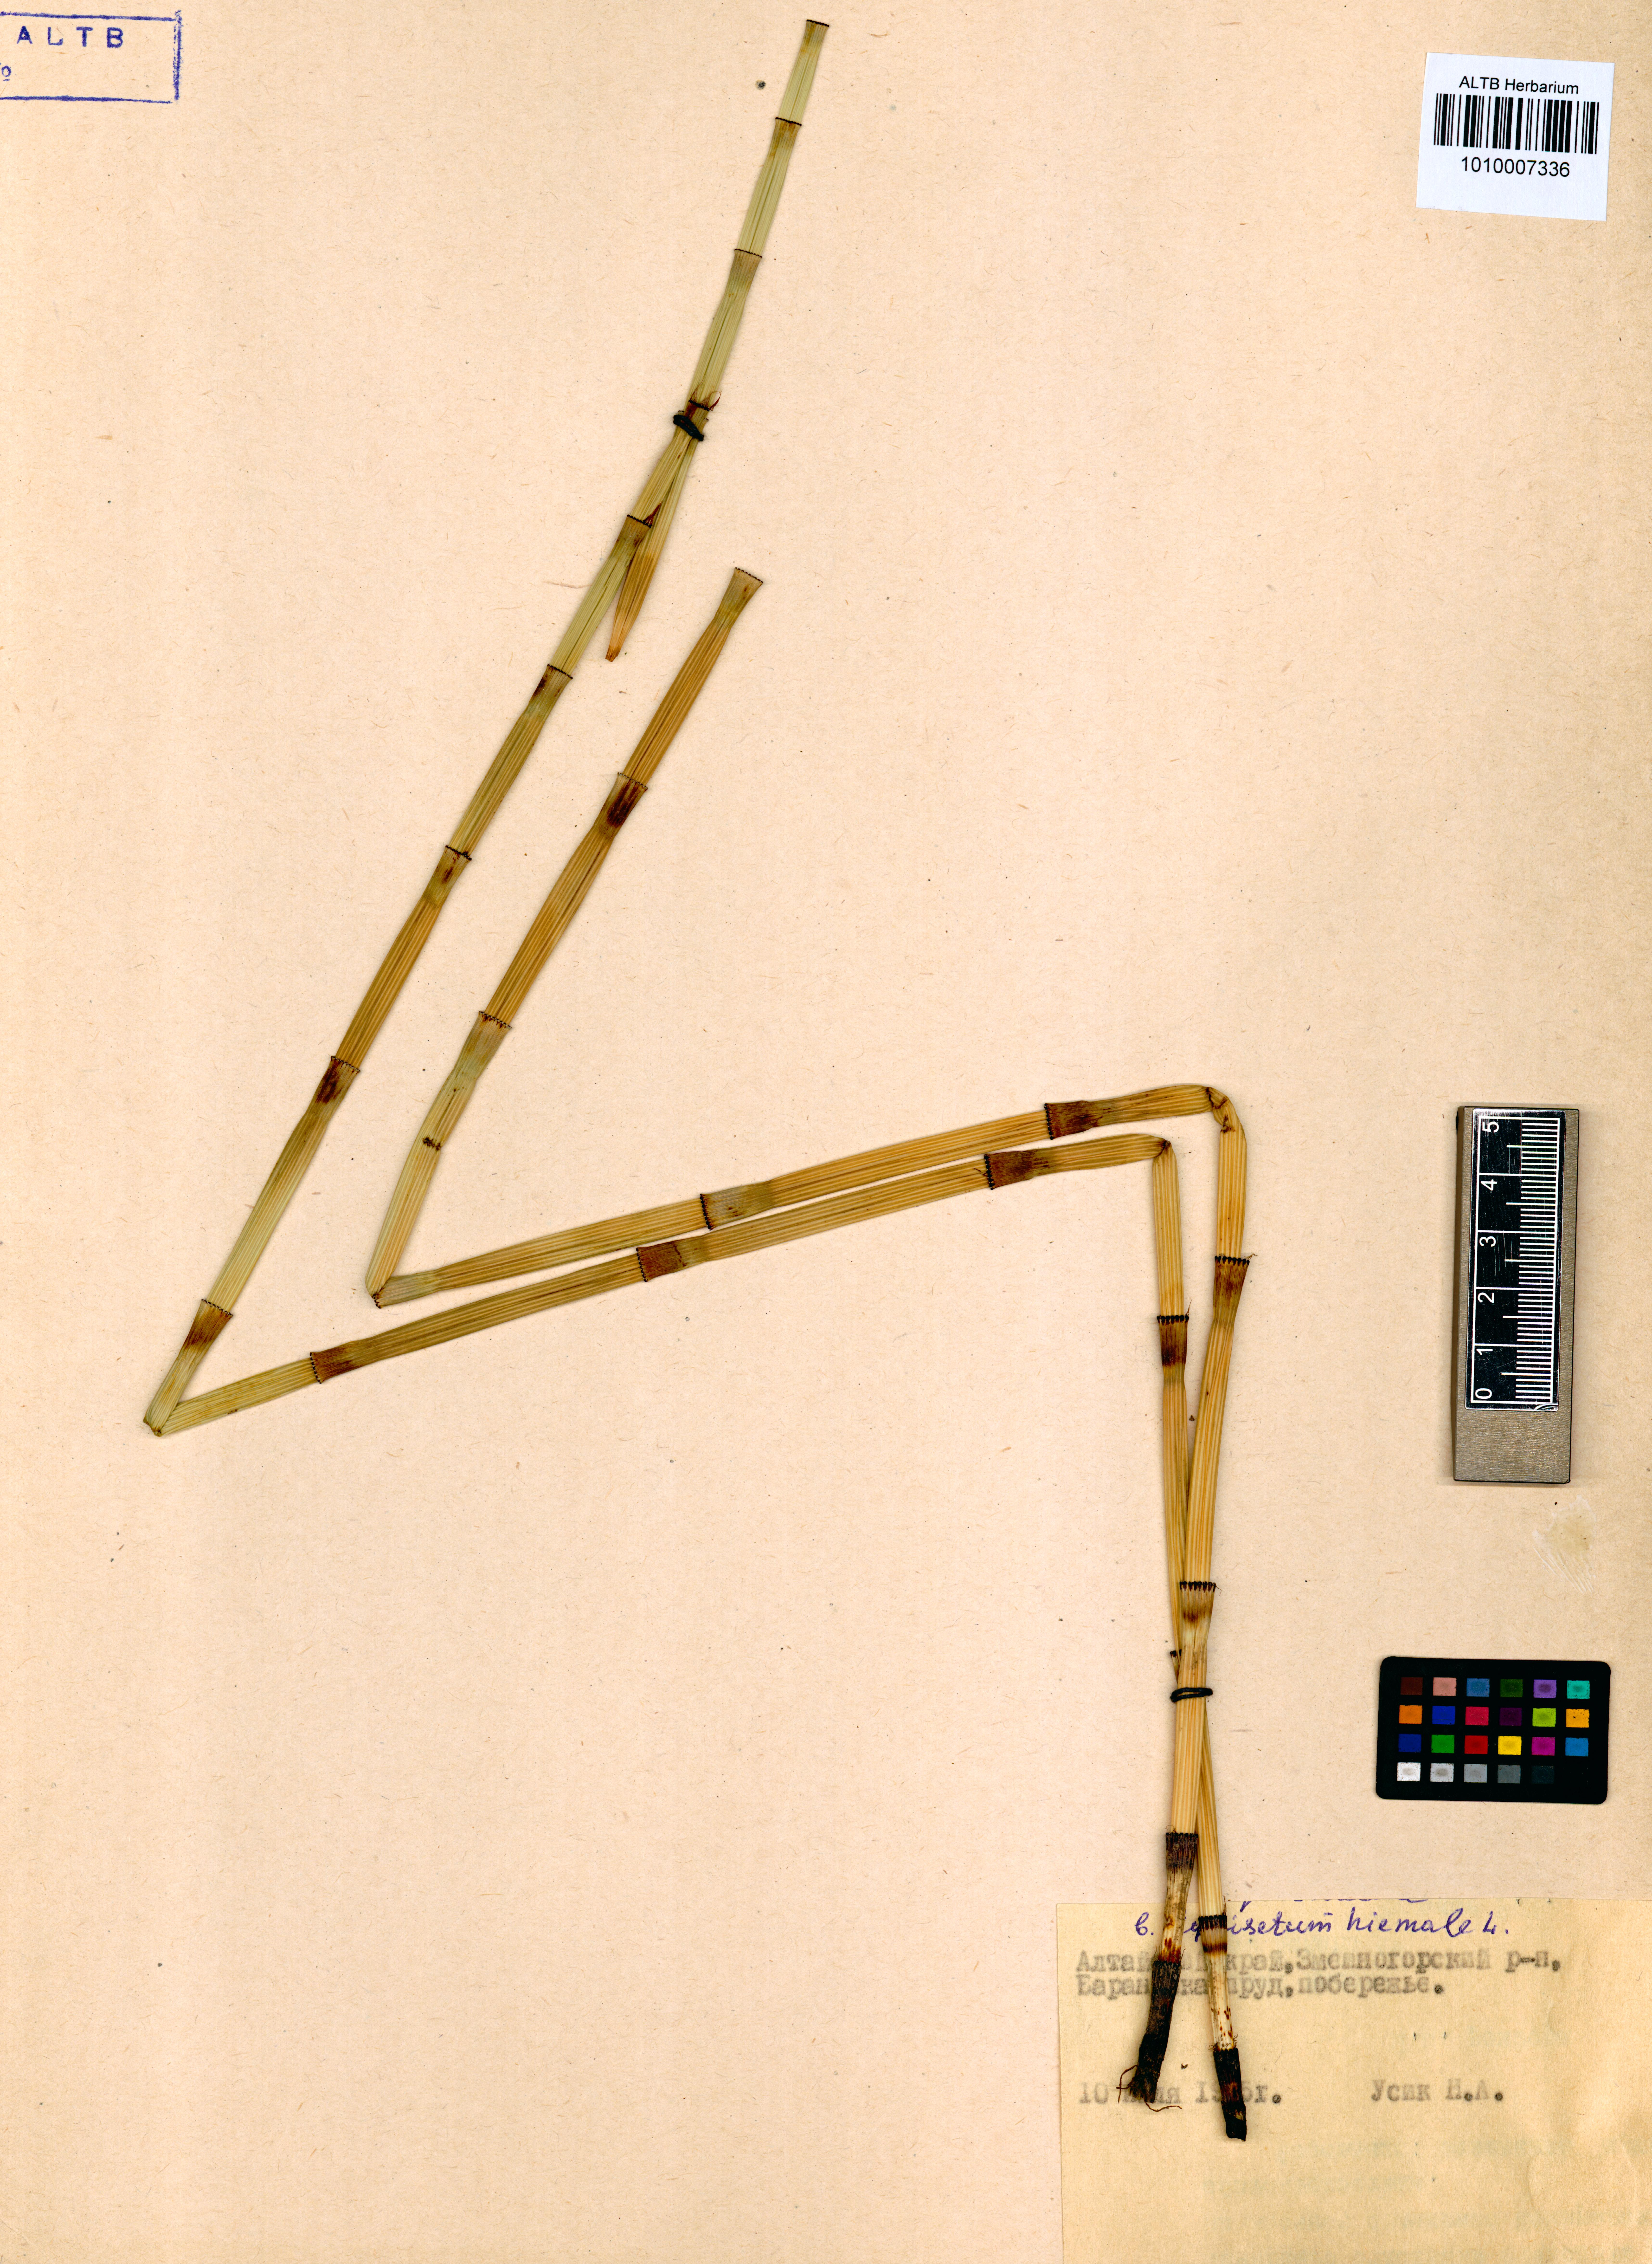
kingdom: Plantae
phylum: Tracheophyta
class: Polypodiopsida
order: Equisetales
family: Equisetaceae
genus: Equisetum
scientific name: Equisetum hyemale
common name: Rough horsetail
